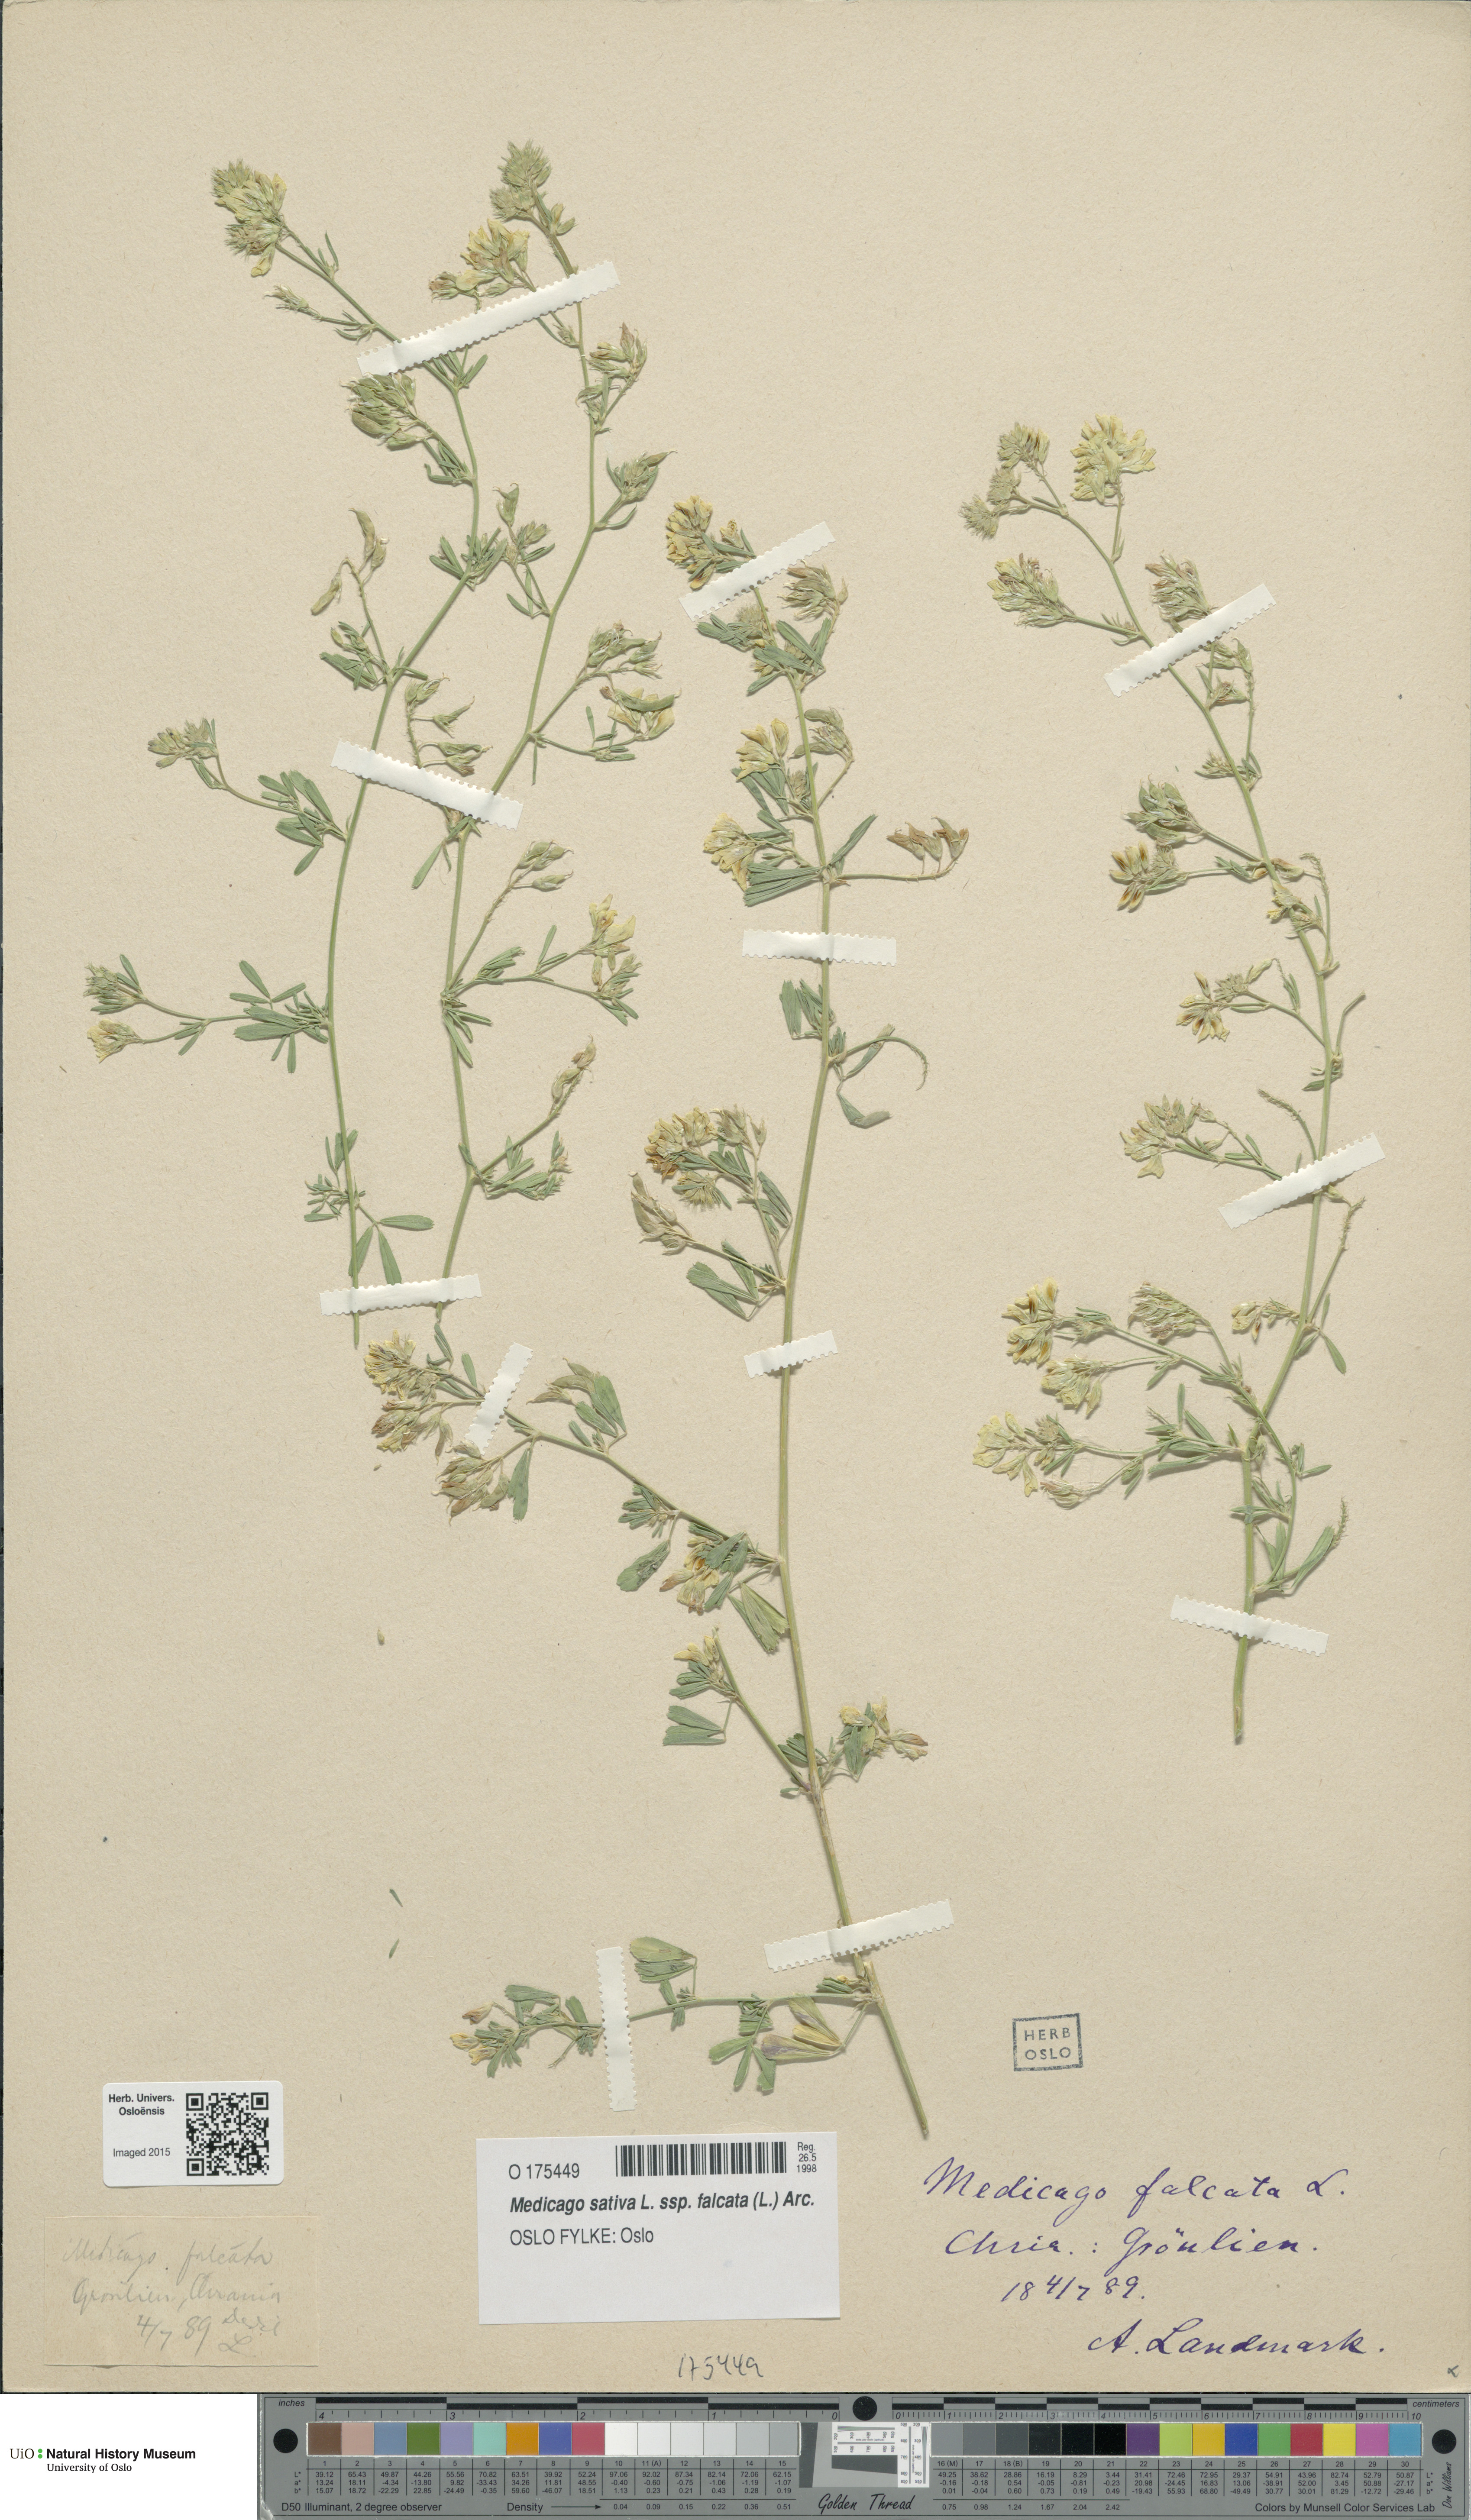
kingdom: Plantae
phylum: Tracheophyta
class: Magnoliopsida
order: Fabales
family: Fabaceae
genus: Medicago
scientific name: Medicago falcata
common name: Sickle medick
